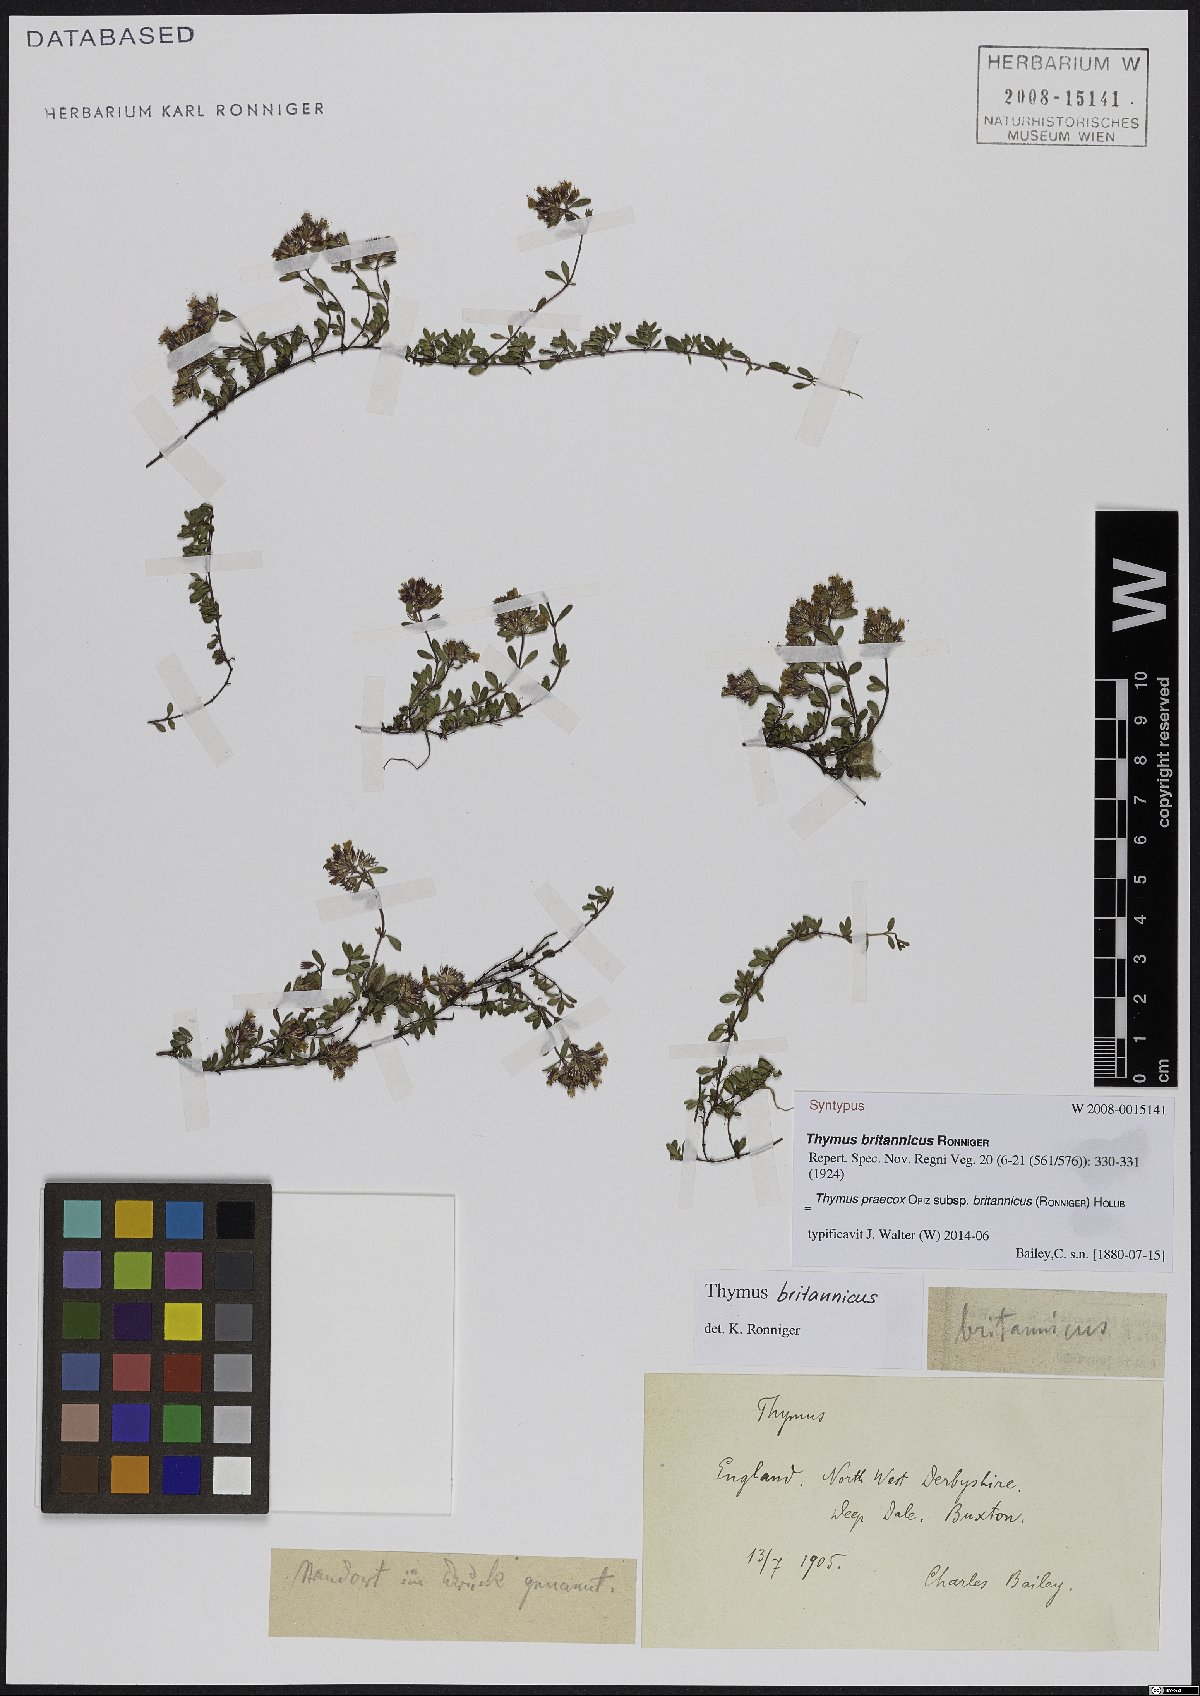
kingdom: Plantae
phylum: Tracheophyta
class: Magnoliopsida
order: Lamiales
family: Lamiaceae
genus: Thymus
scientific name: Thymus praecox
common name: Wild thyme
